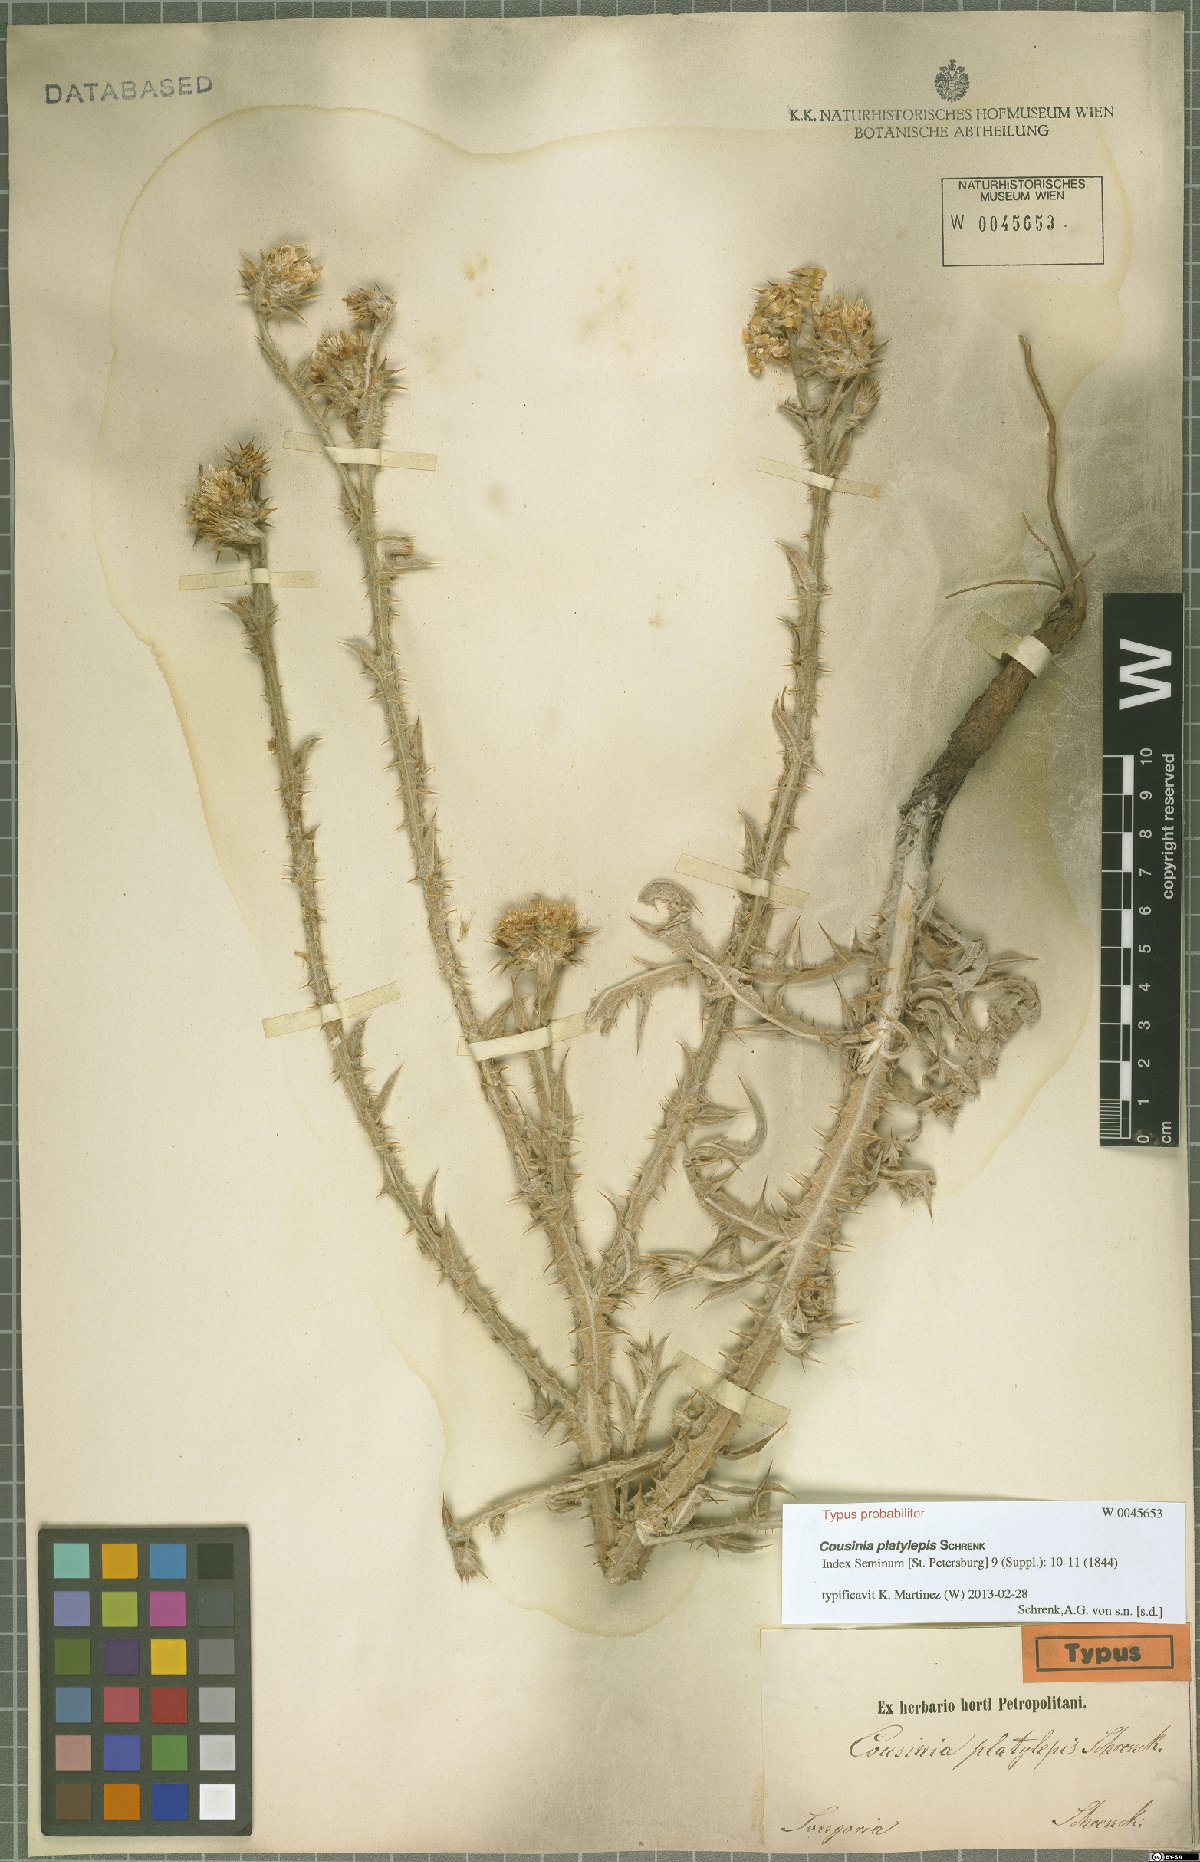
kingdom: Plantae
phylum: Tracheophyta
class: Magnoliopsida
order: Asterales
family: Asteraceae
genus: Cousinia
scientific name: Cousinia platylepis
